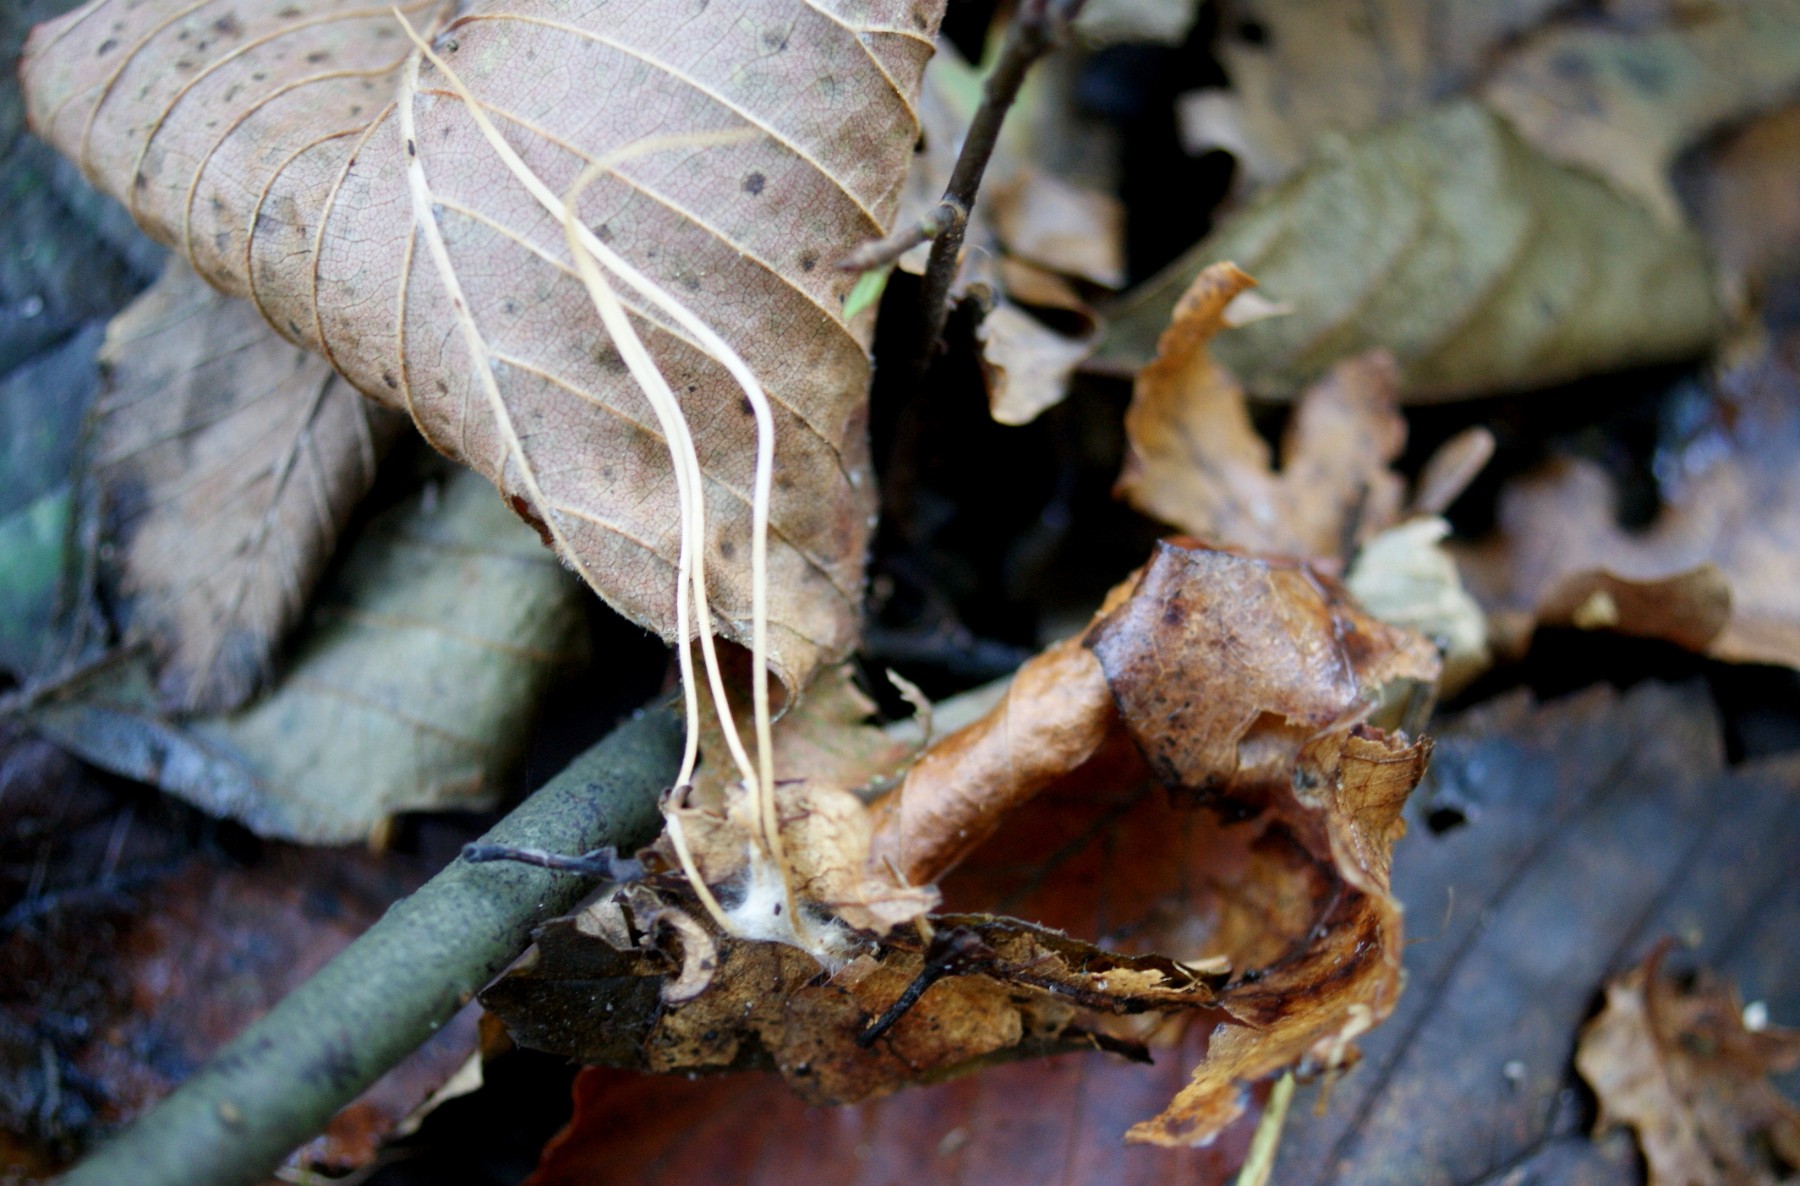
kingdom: Fungi
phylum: Basidiomycota
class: Agaricomycetes
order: Agaricales
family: Typhulaceae
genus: Typhula
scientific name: Typhula juncea
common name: trådagtig rørkølle
